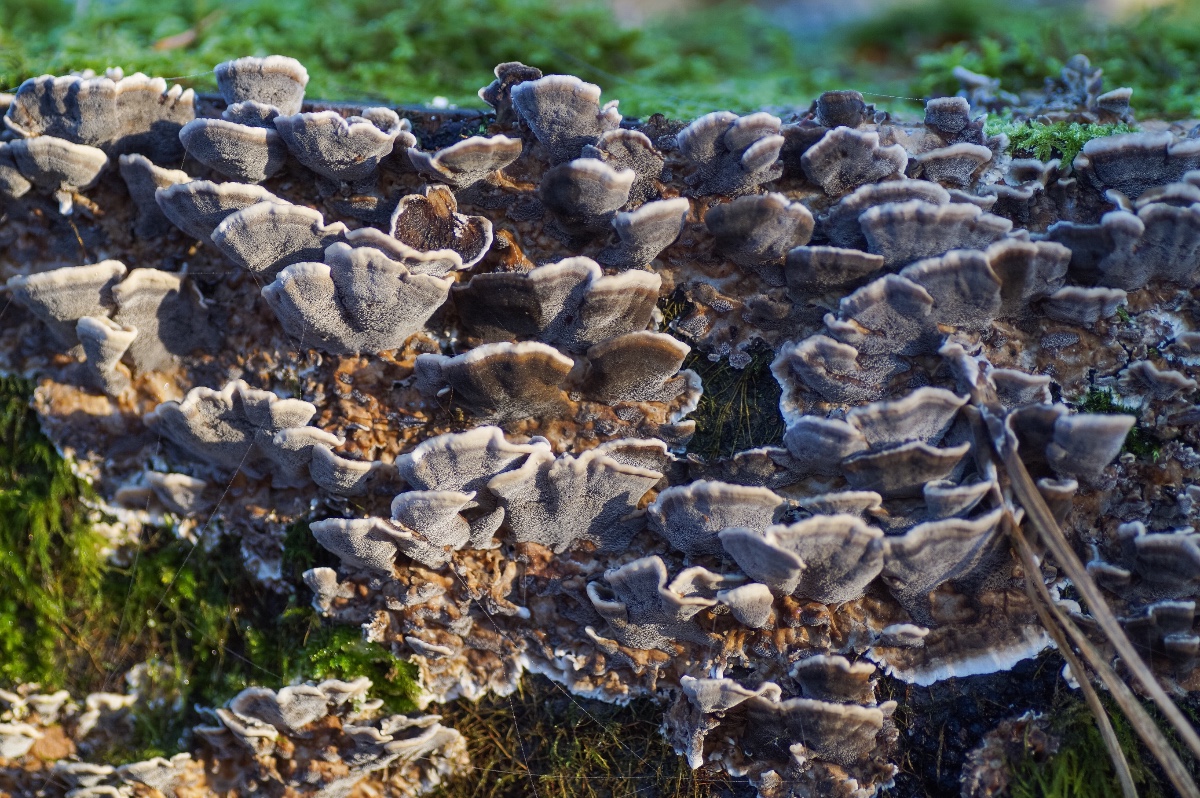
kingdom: Fungi
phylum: Basidiomycota
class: Agaricomycetes
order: Polyporales
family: Phanerochaetaceae
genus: Bjerkandera
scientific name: Bjerkandera adusta
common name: sveden sodporesvamp
